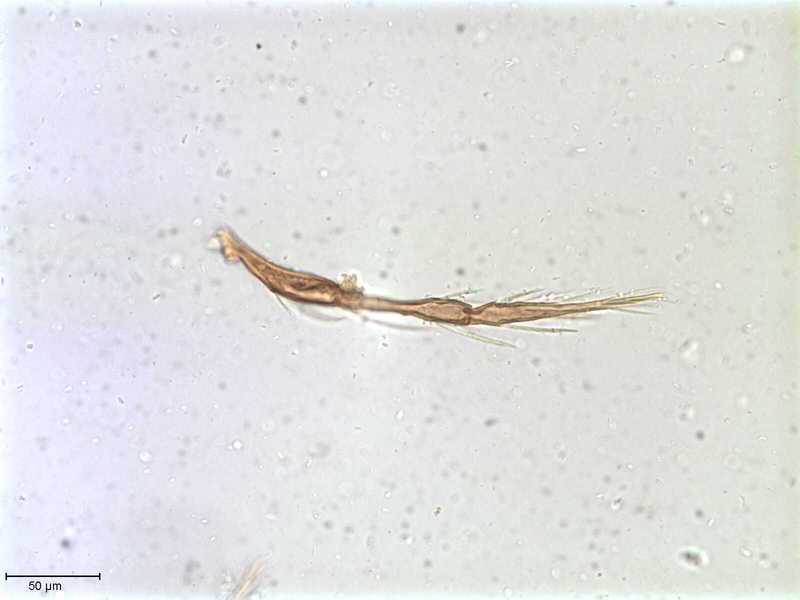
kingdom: Animalia
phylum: Arthropoda
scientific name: Arthropoda
